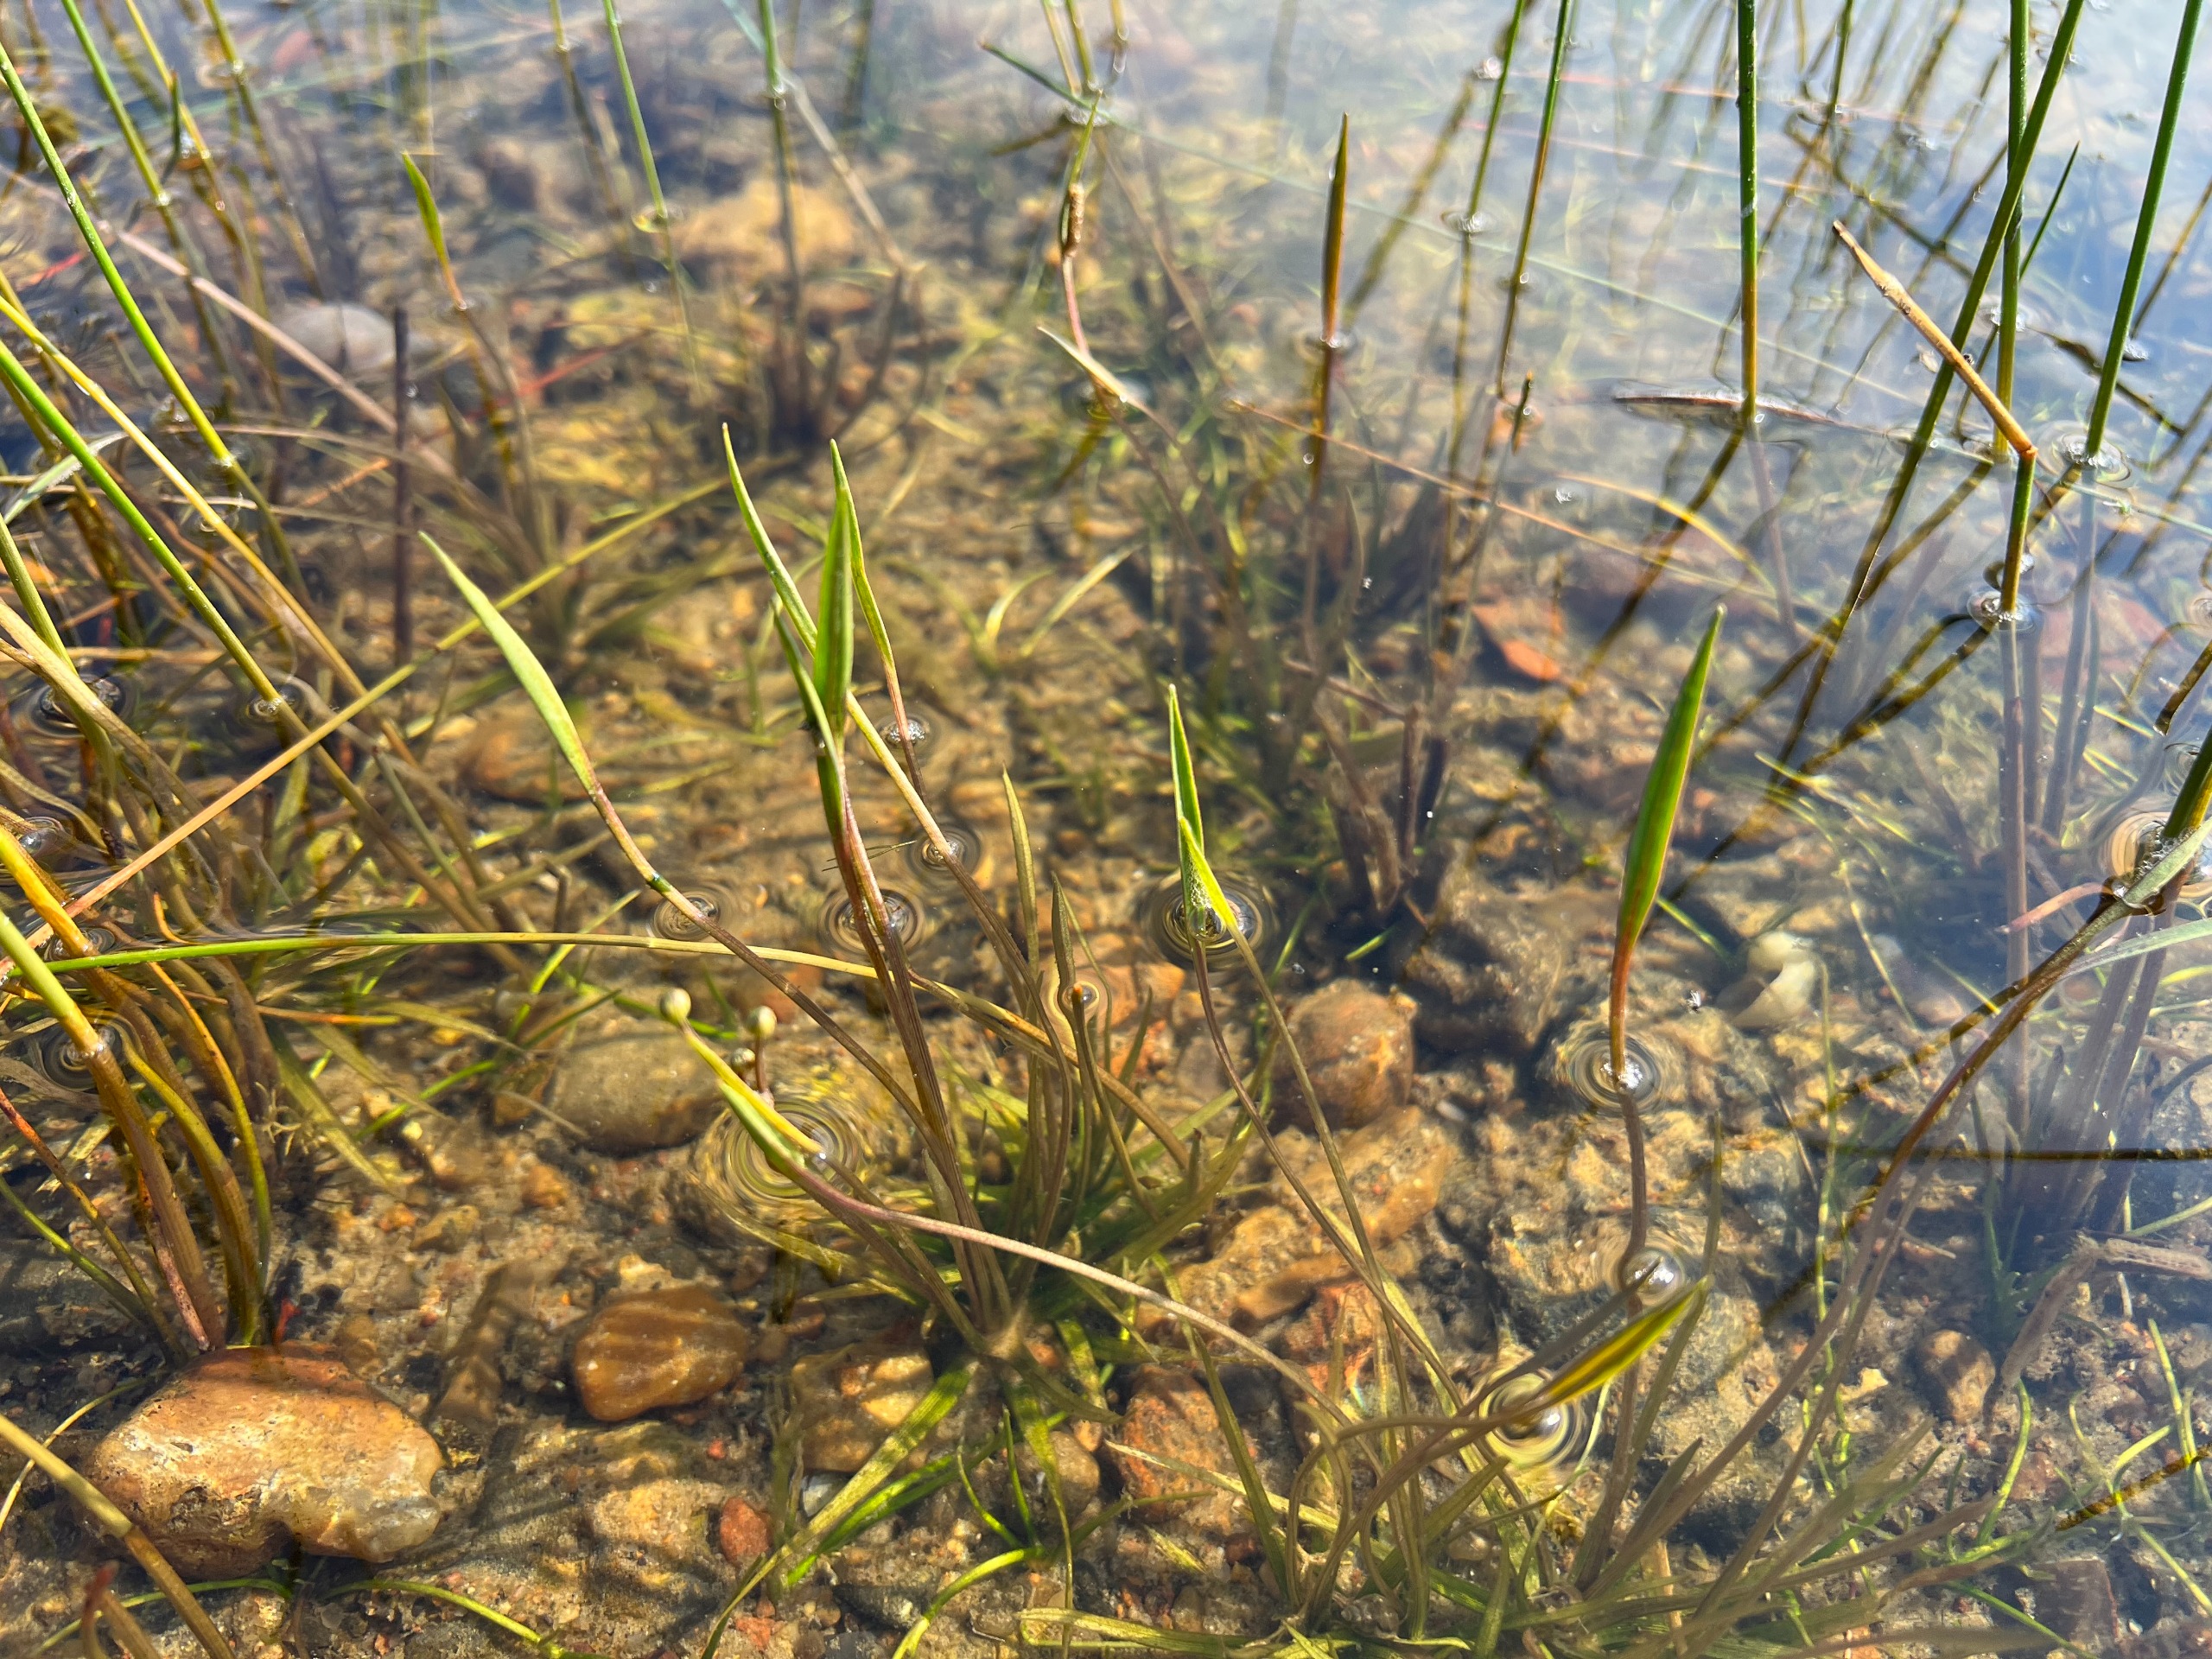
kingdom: Plantae
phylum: Tracheophyta
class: Liliopsida
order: Alismatales
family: Alismataceae
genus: Baldellia
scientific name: Baldellia ranunculoides
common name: Søpryd
